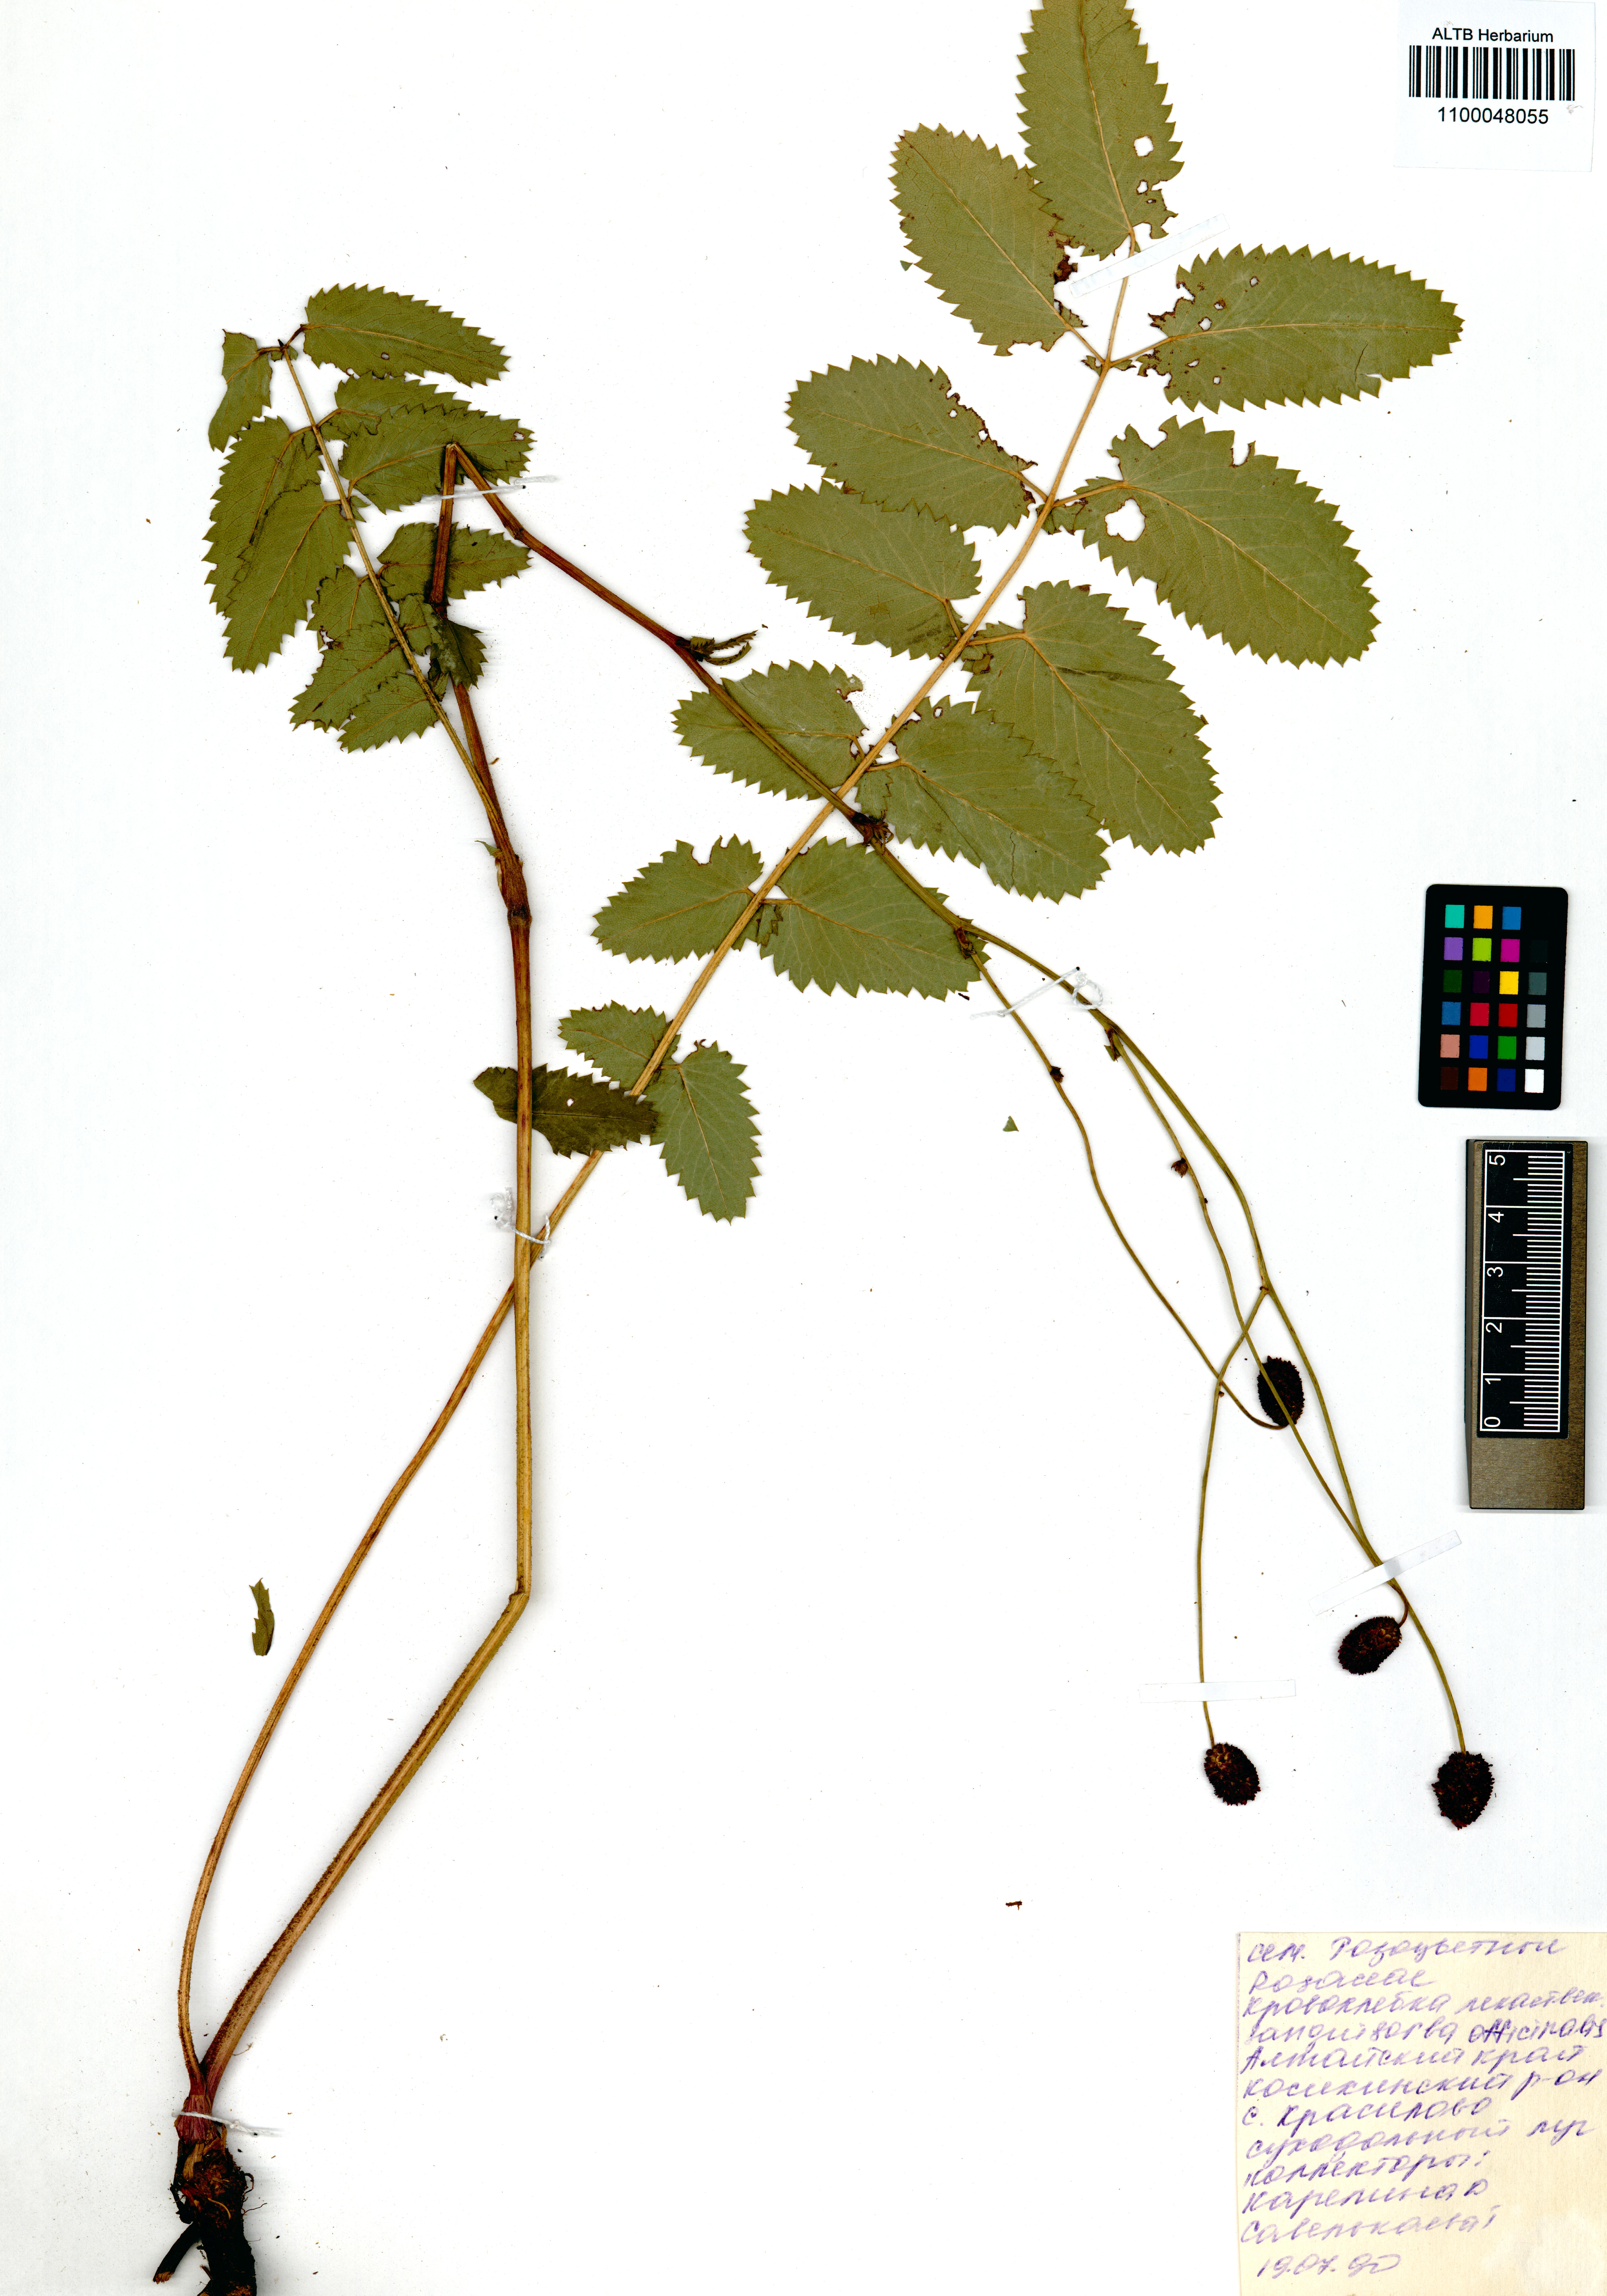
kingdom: Plantae
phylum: Tracheophyta
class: Magnoliopsida
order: Rosales
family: Rosaceae
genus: Sanguisorba
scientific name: Sanguisorba officinalis
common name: Great burnet
